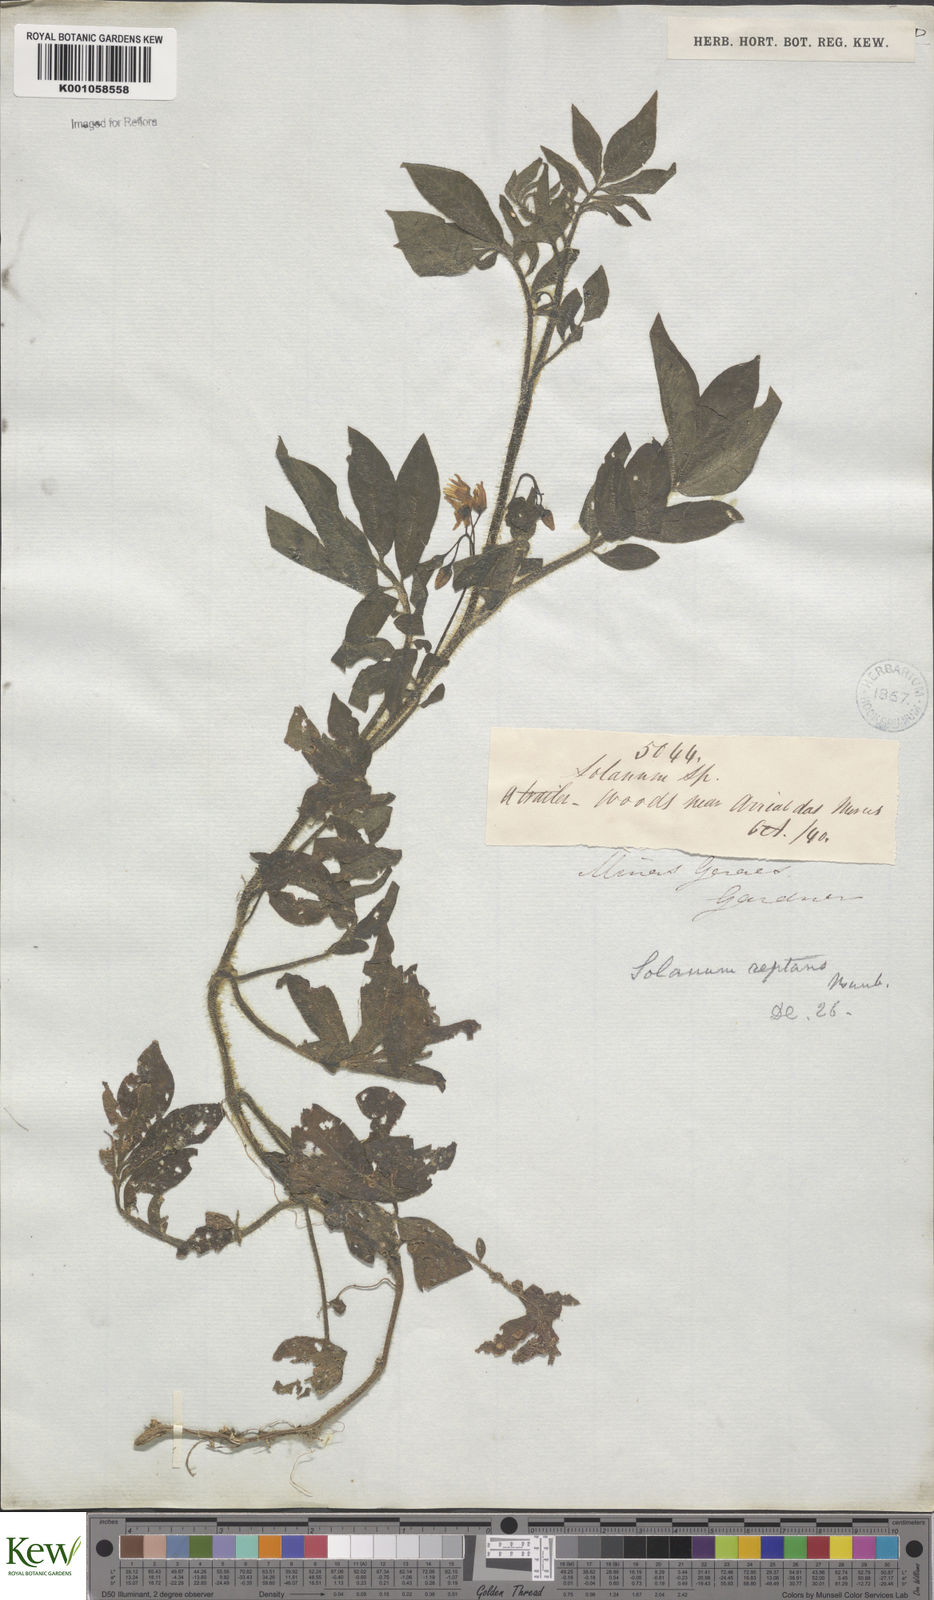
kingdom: Plantae
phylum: Tracheophyta
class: Magnoliopsida
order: Solanales
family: Solanaceae
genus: Solanum
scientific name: Solanum reptans
